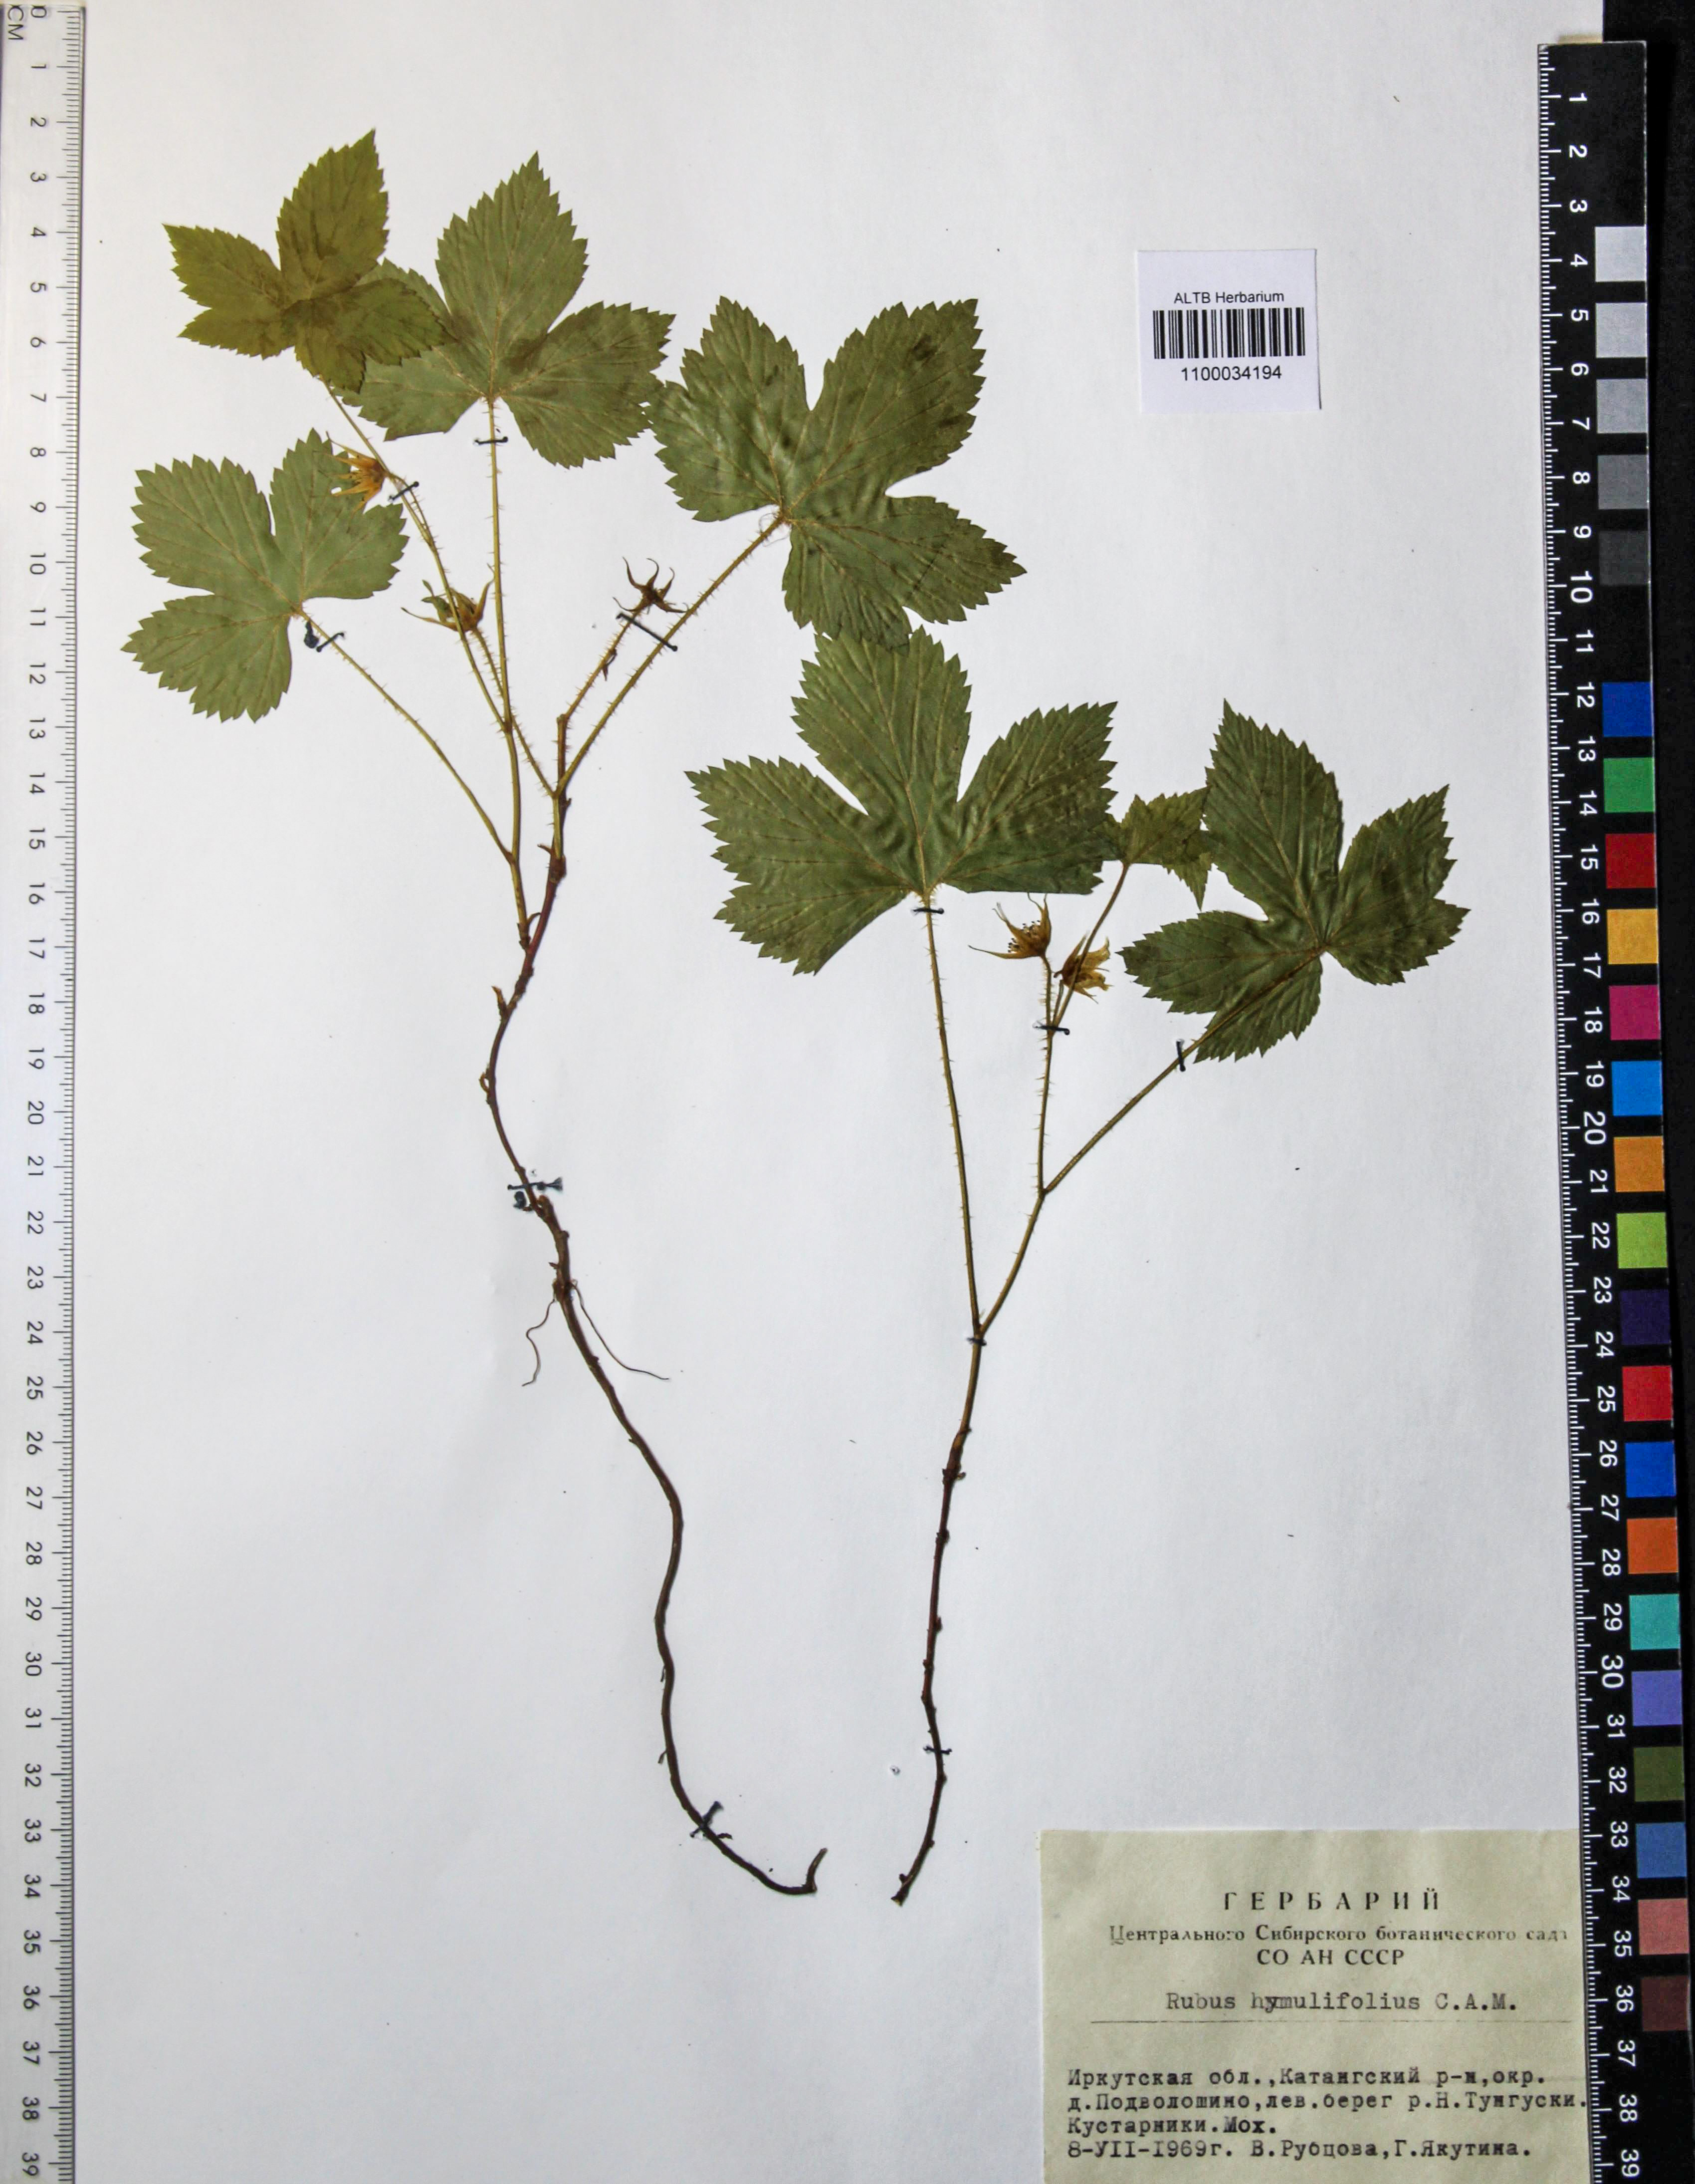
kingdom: Plantae
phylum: Tracheophyta
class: Magnoliopsida
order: Rosales
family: Rosaceae
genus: Rubus
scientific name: Rubus humilifolius
